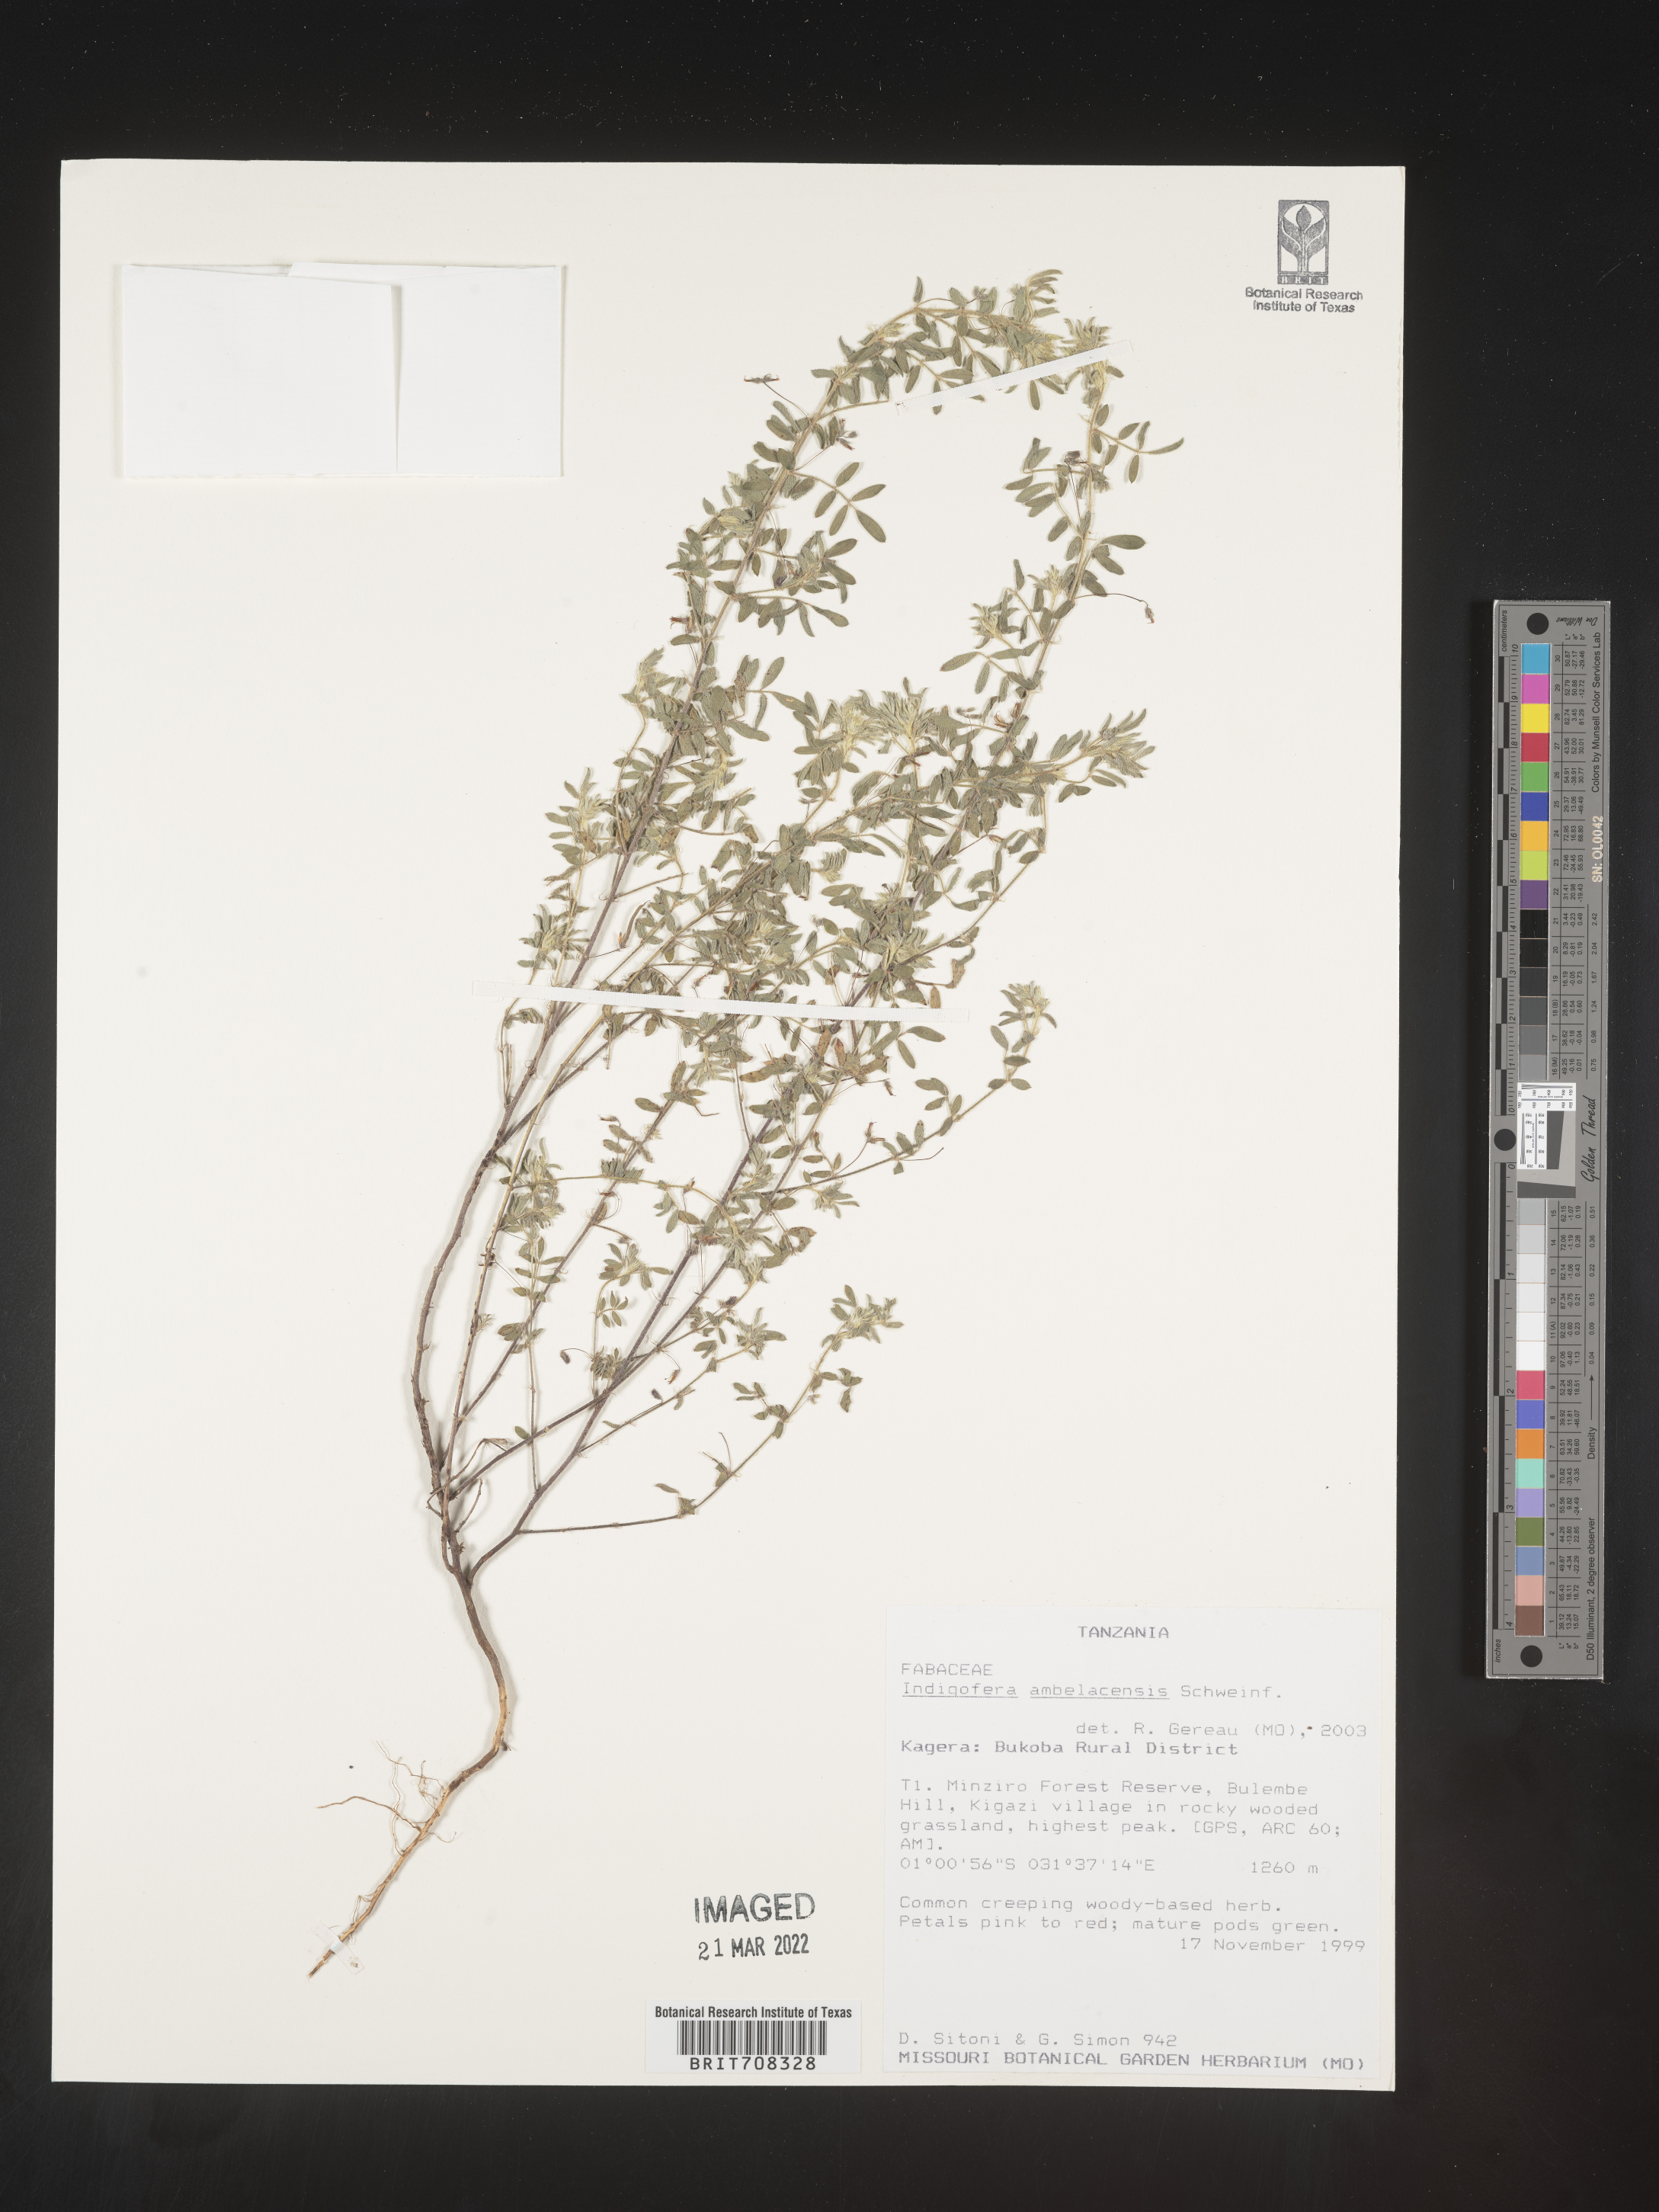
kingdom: Plantae
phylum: Tracheophyta
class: Magnoliopsida
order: Fabales
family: Fabaceae
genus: Indigofera
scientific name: Indigofera
